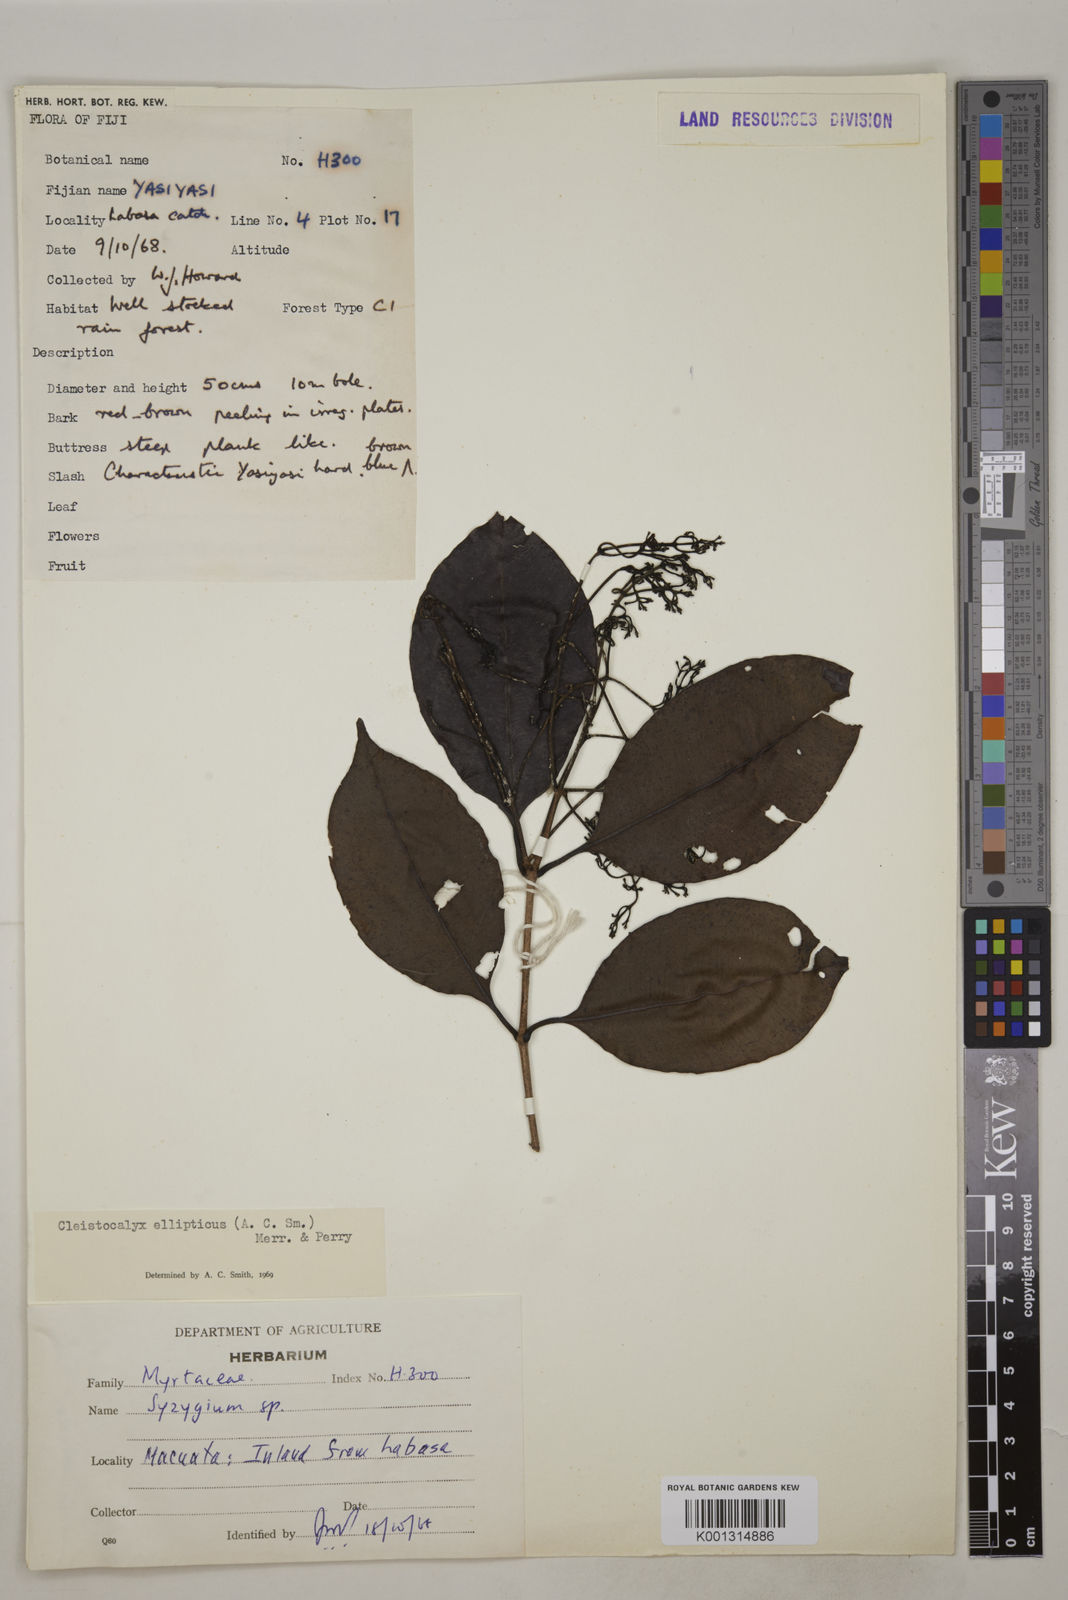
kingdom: Plantae
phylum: Tracheophyta
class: Magnoliopsida
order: Myrtales
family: Myrtaceae
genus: Syzygium
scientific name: Syzygium seemannii
